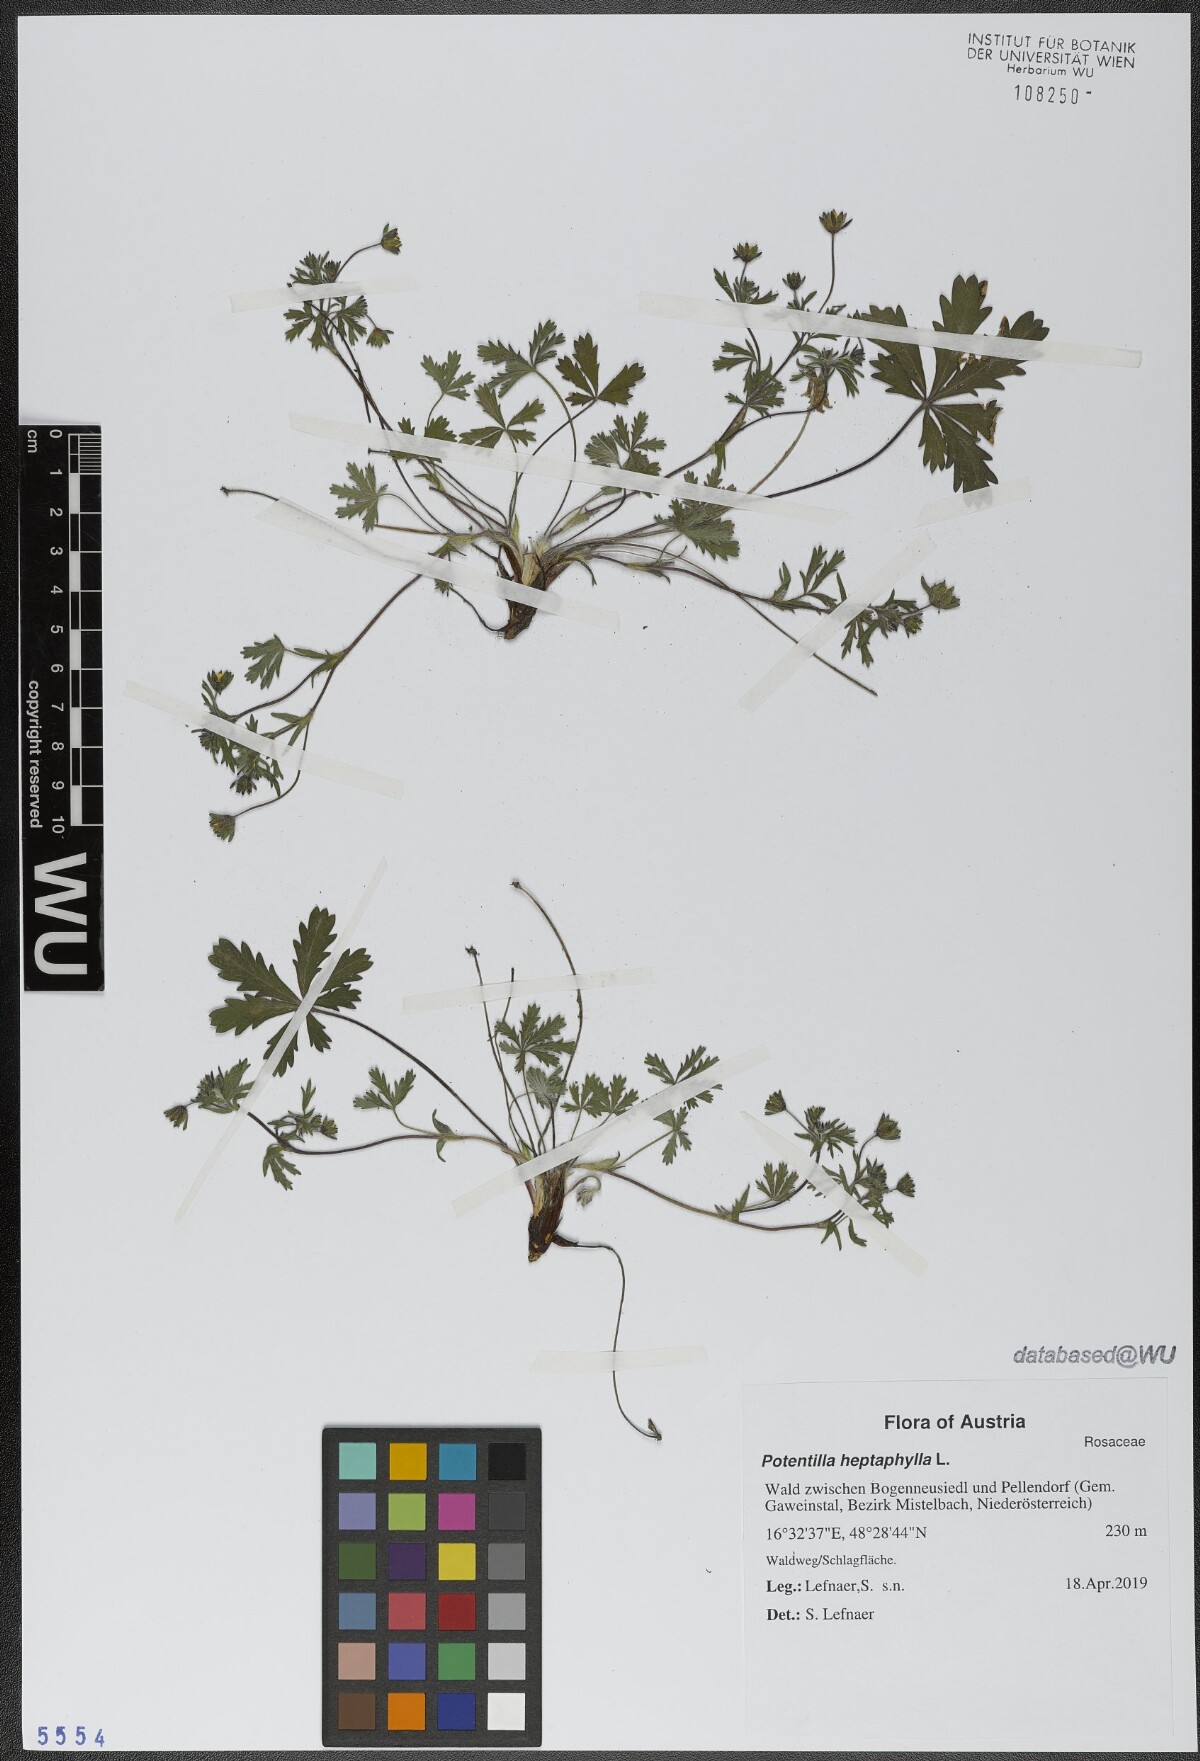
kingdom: Plantae
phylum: Tracheophyta
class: Magnoliopsida
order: Rosales
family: Rosaceae
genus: Potentilla
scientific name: Potentilla heptaphylla
